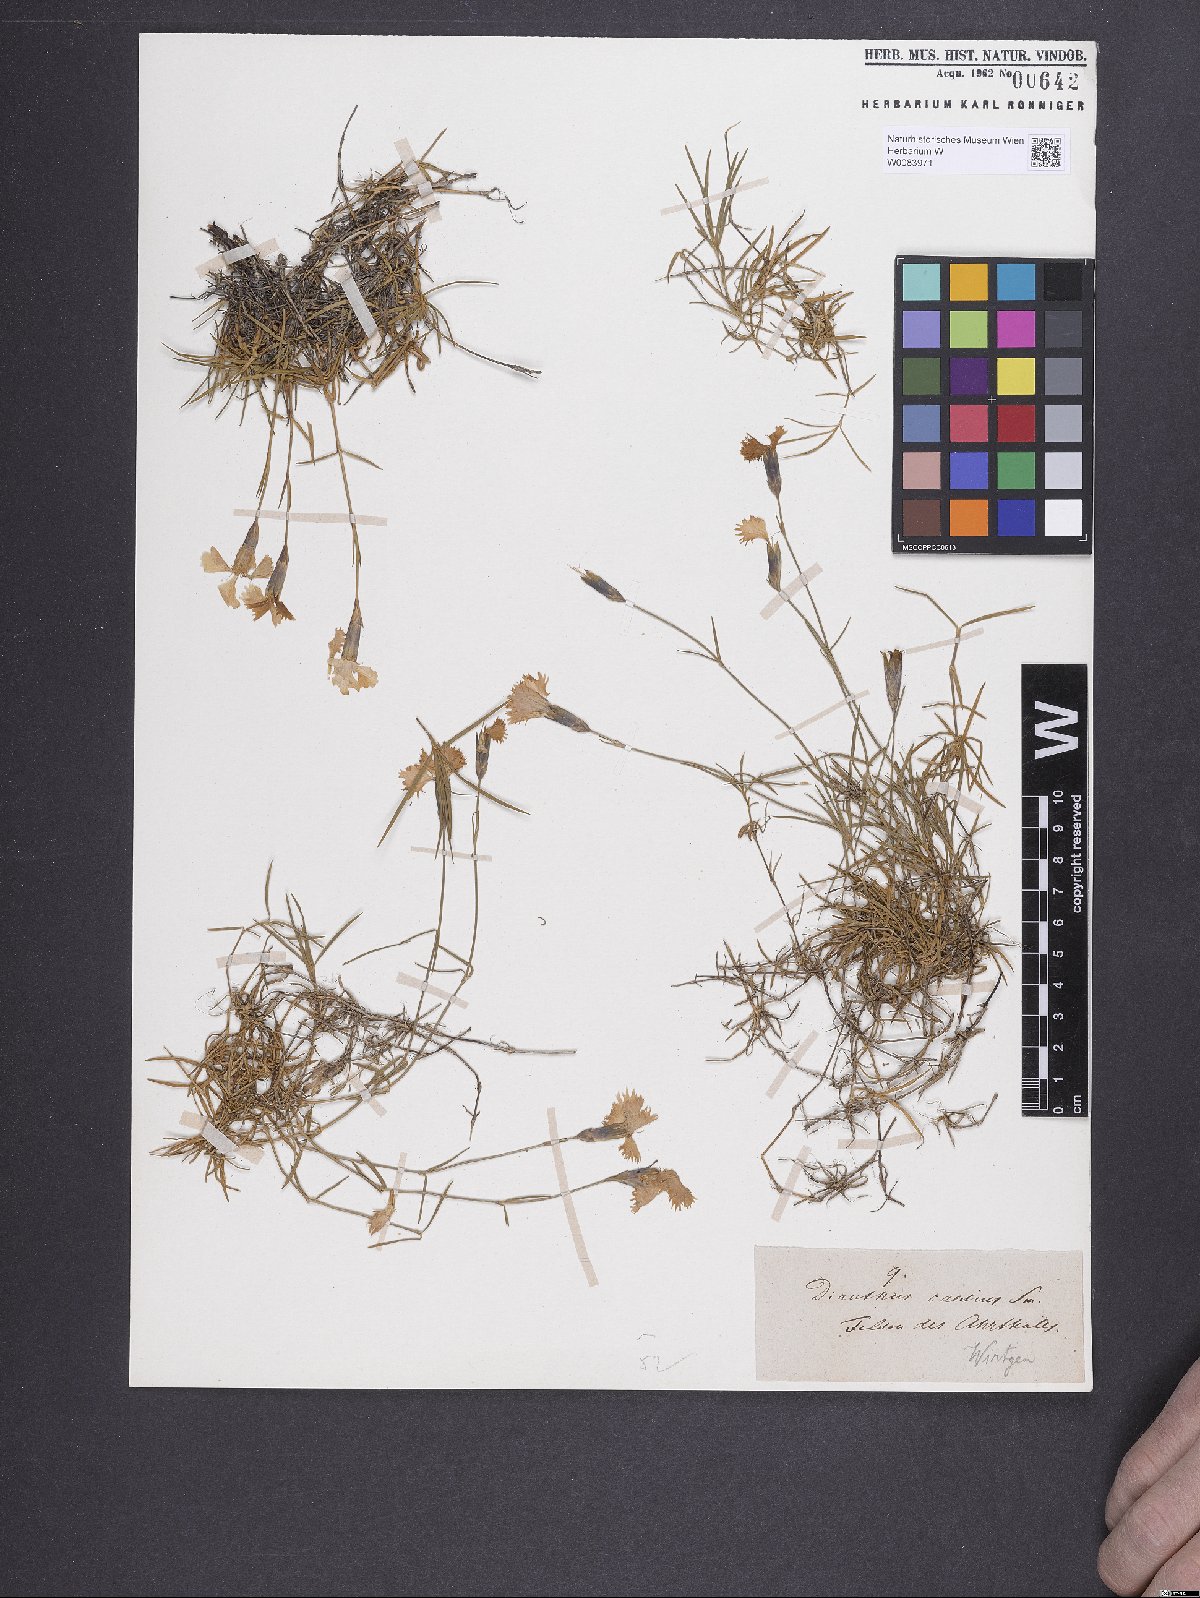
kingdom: Plantae
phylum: Tracheophyta
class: Magnoliopsida
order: Caryophyllales
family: Caryophyllaceae
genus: Dianthus
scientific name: Dianthus gratianopolitanus
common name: Cheddar pink
